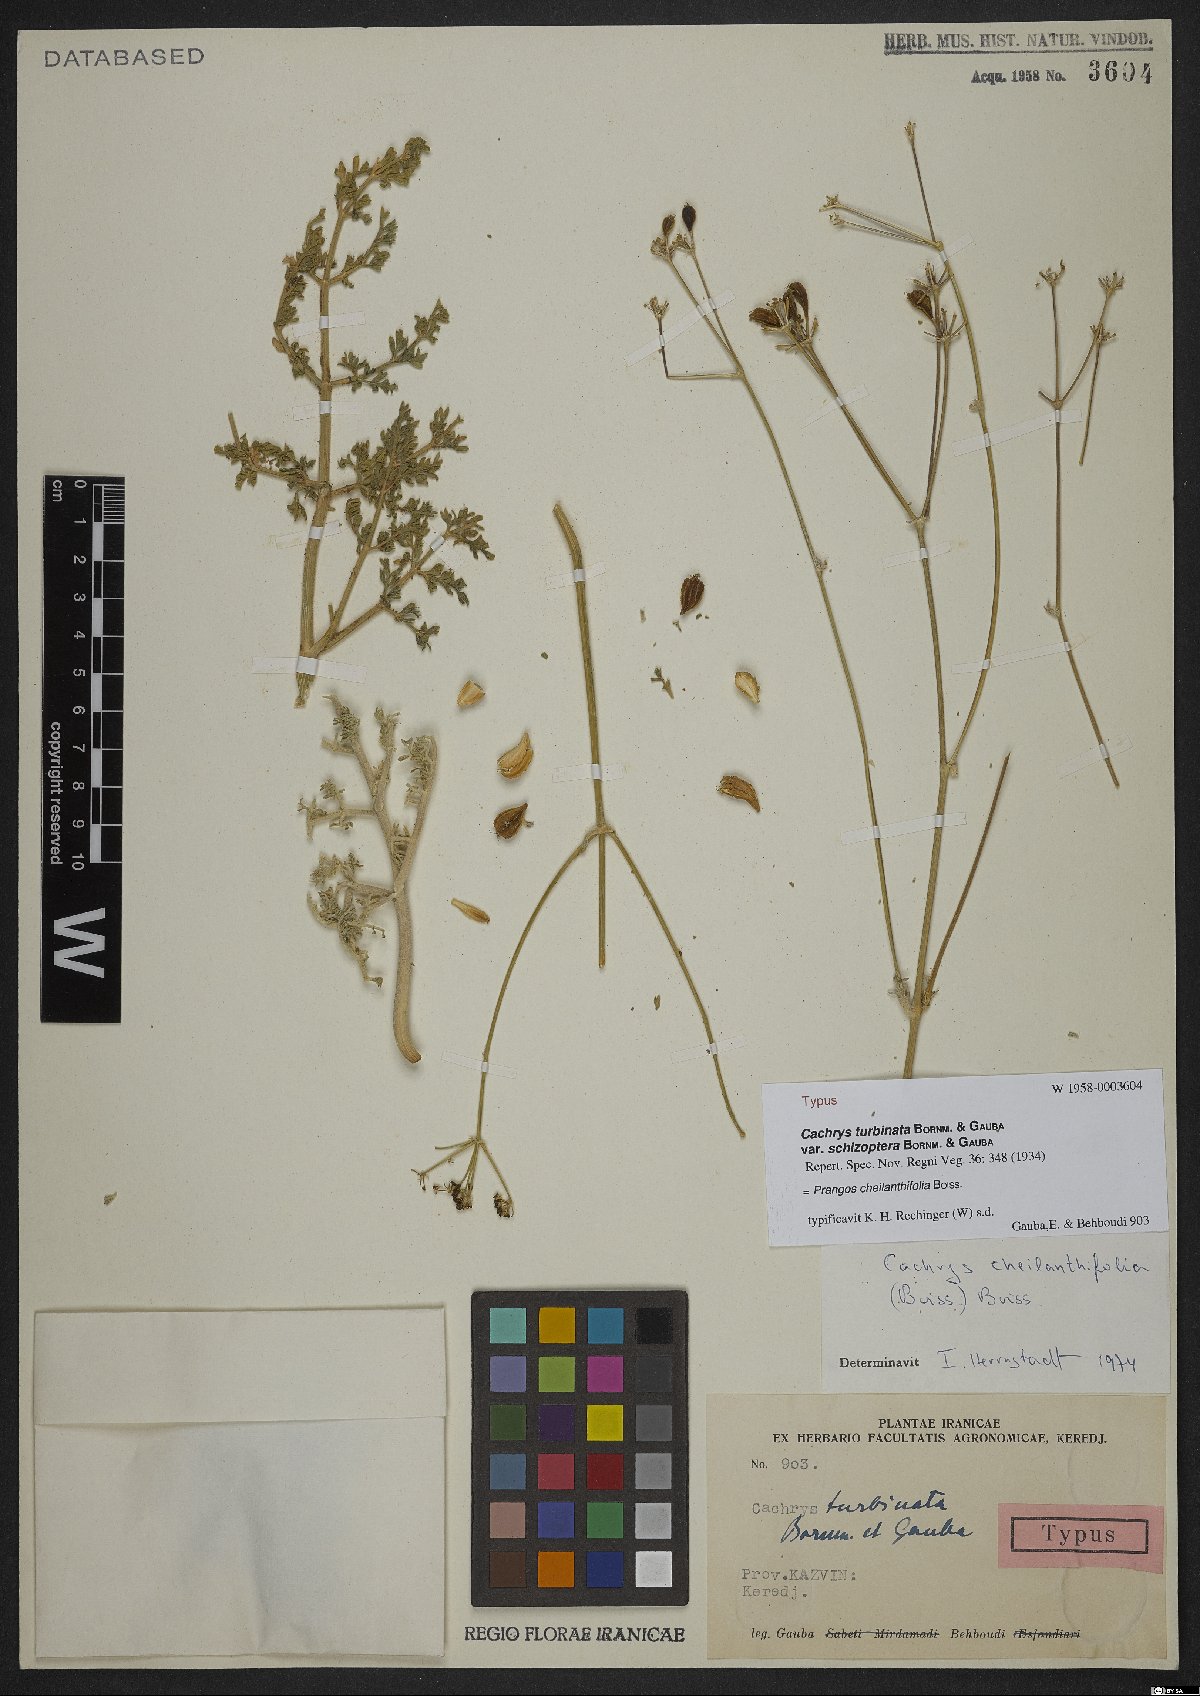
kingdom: Plantae
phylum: Tracheophyta
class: Magnoliopsida
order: Apiales
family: Apiaceae
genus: Prangos
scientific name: Prangos cheilanthifolia
